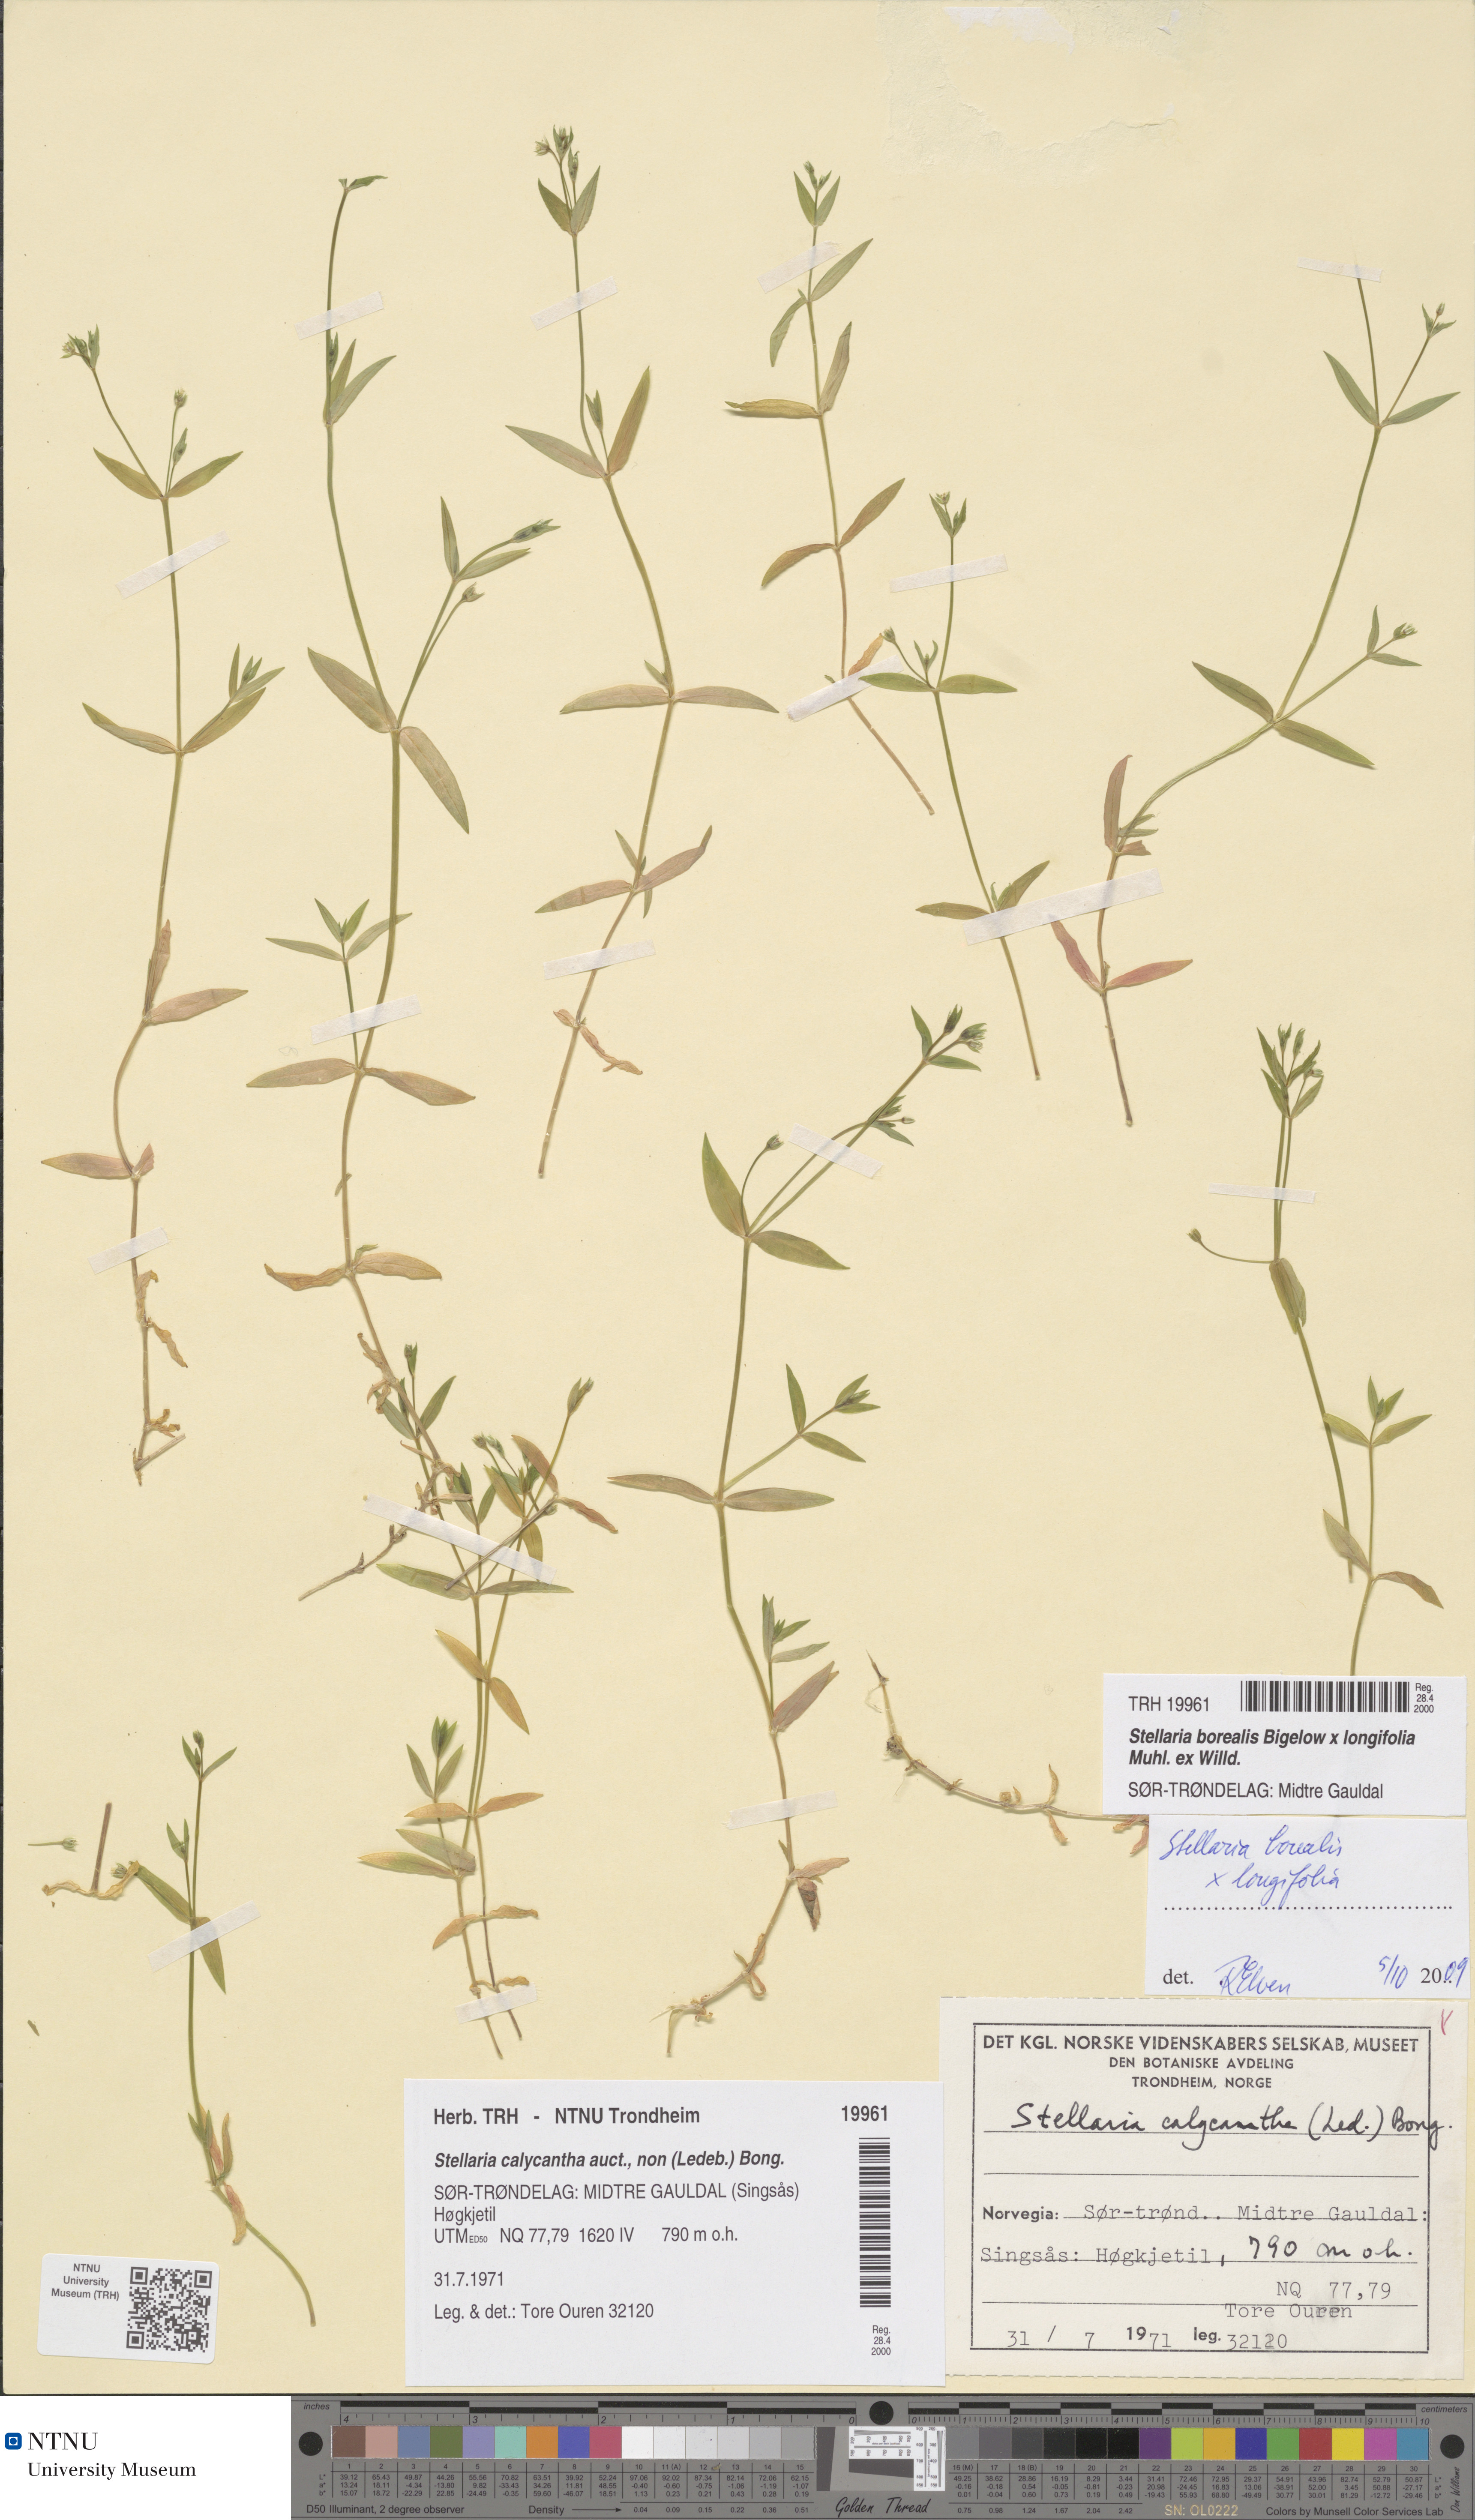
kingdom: Plantae
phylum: Tracheophyta
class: Magnoliopsida
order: Caryophyllales
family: Caryophyllaceae
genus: Stellaria
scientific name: Stellaria alpestris
